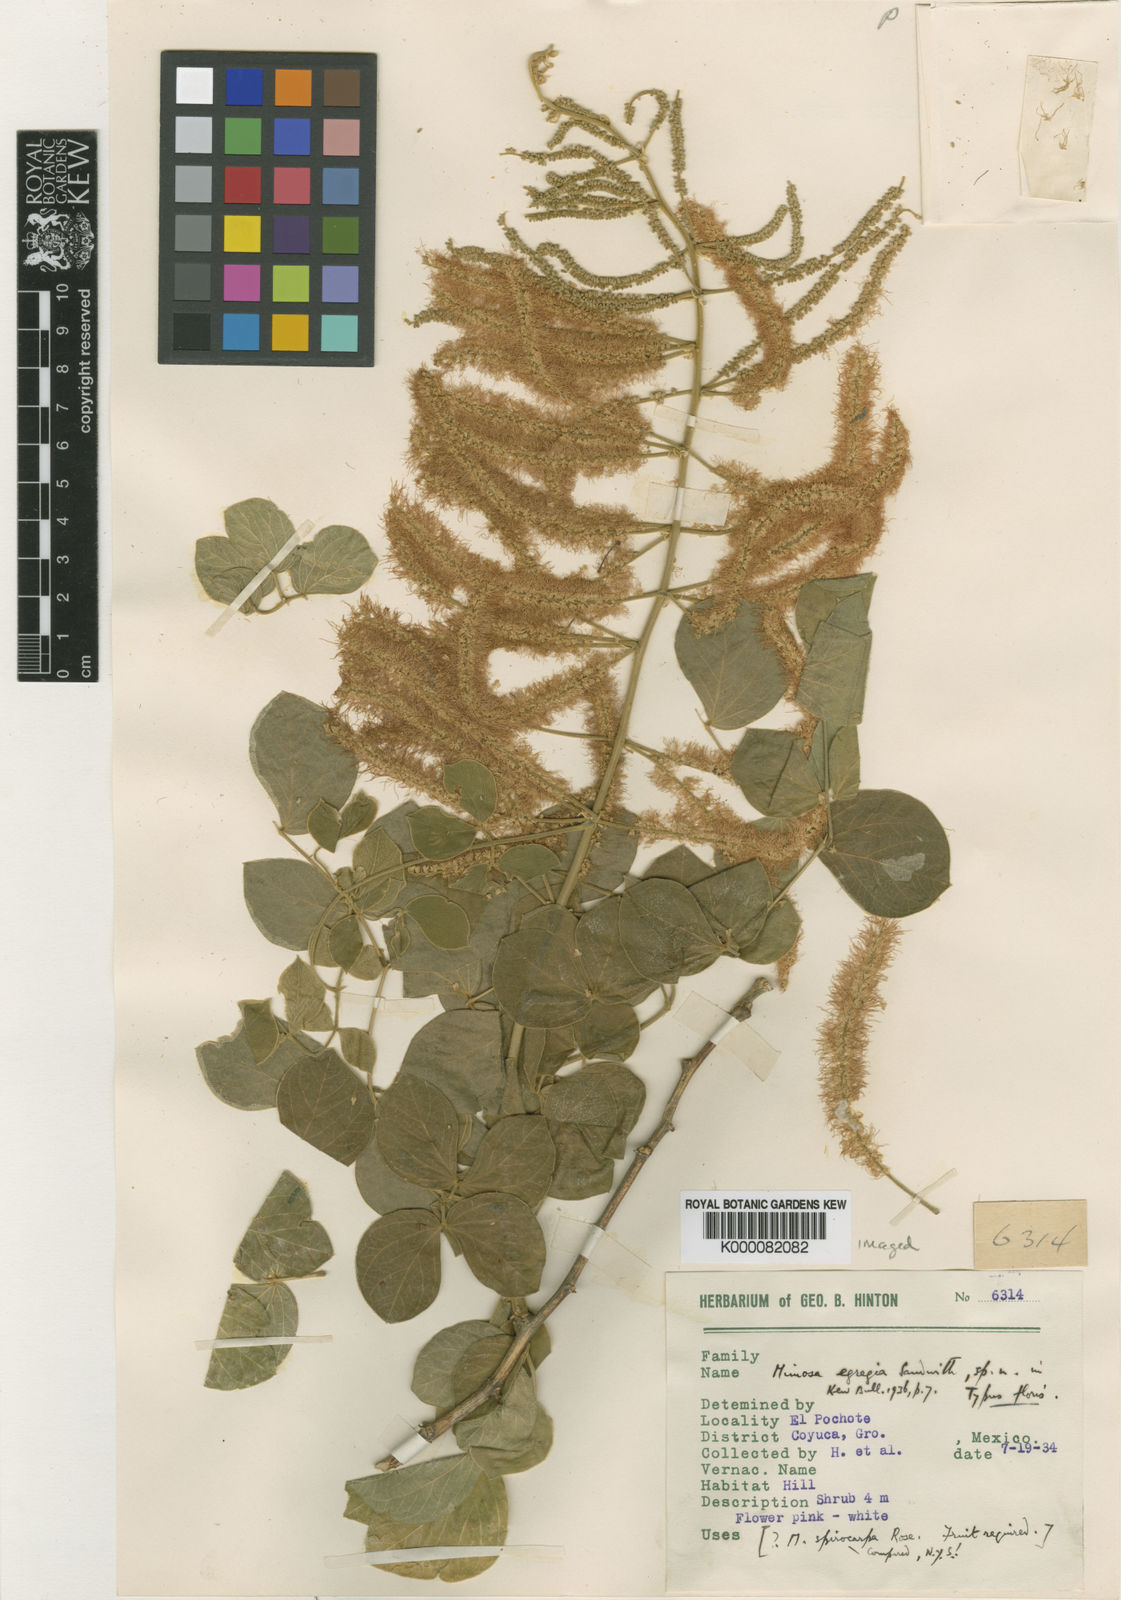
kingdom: Plantae
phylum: Tracheophyta
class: Magnoliopsida
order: Fabales
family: Fabaceae
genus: Mimosa
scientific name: Mimosa egregia
